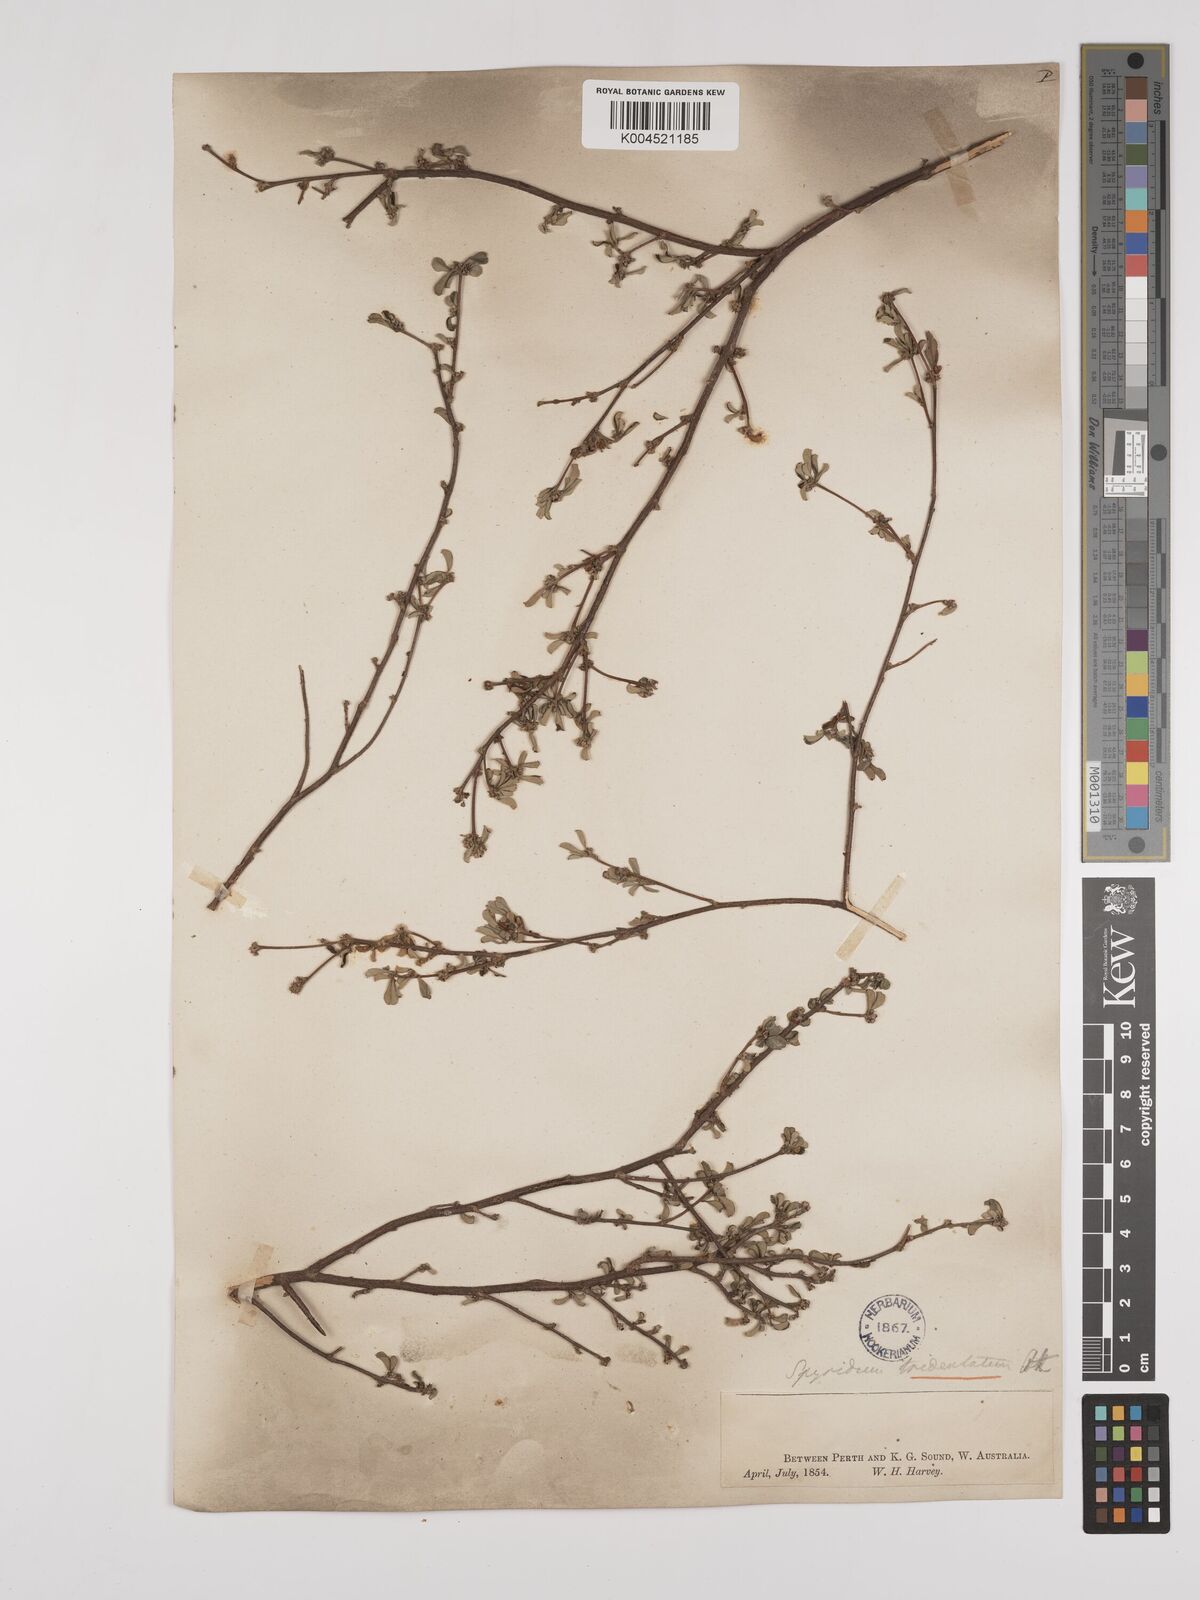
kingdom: Plantae
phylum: Tracheophyta
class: Magnoliopsida
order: Rosales
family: Rhamnaceae
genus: Stenanthemum
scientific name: Stenanthemum tridentatum
